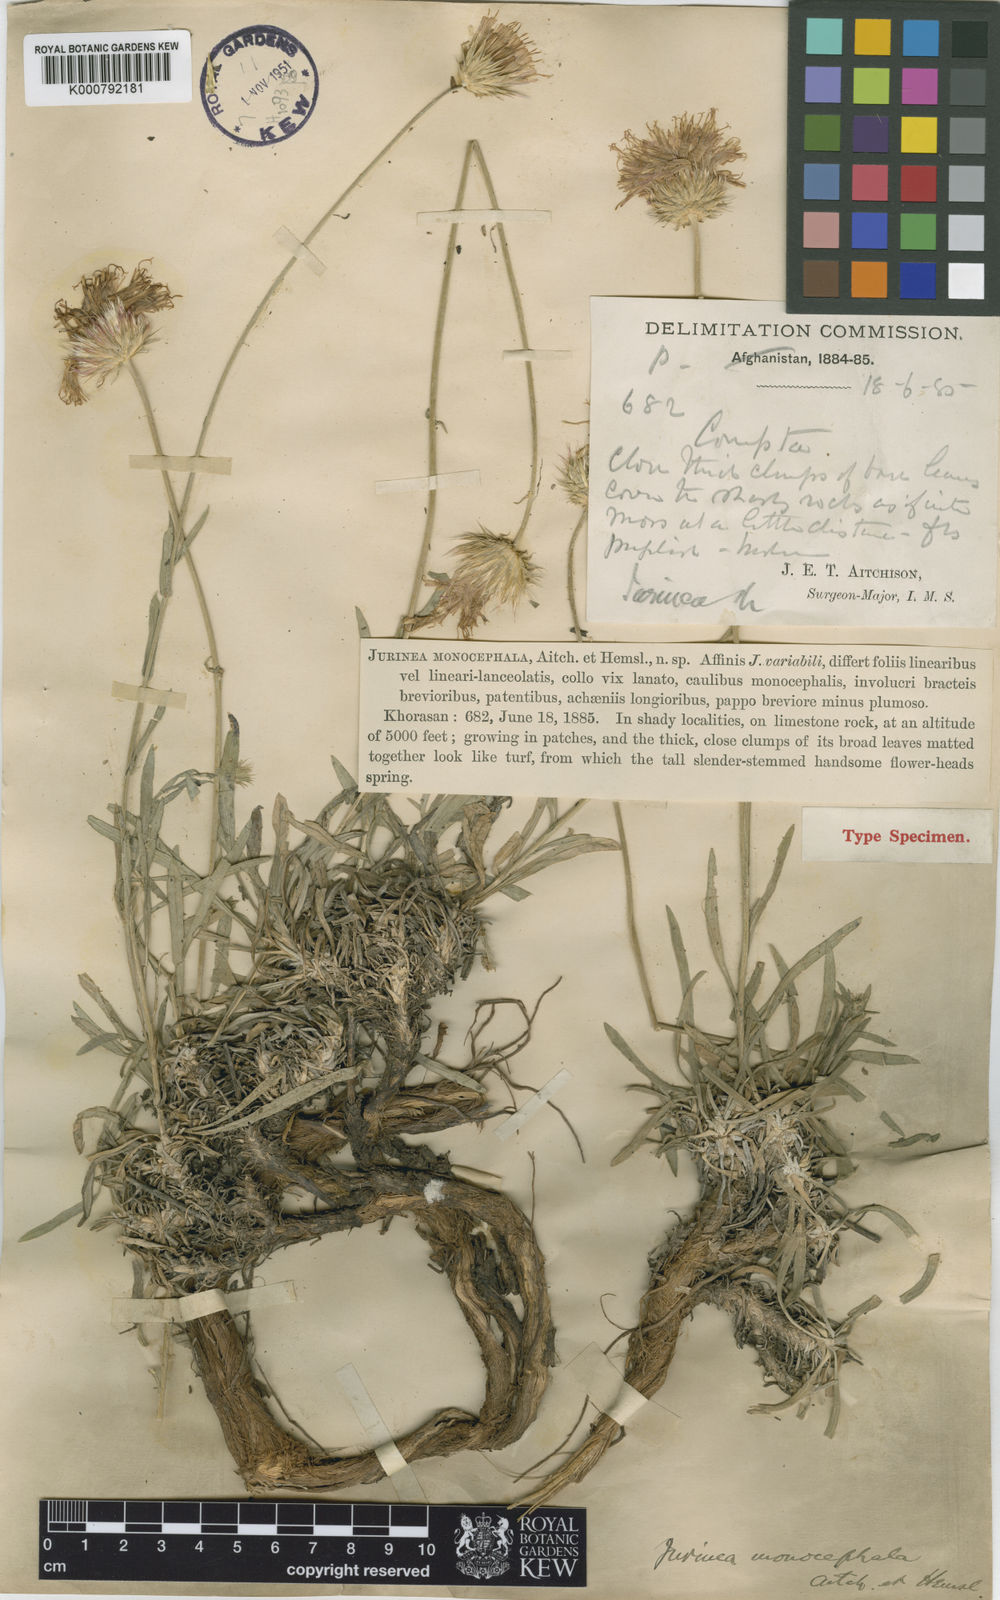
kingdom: Plantae
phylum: Tracheophyta
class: Magnoliopsida
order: Asterales
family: Asteraceae
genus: Jurinea
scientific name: Jurinea monocephala
